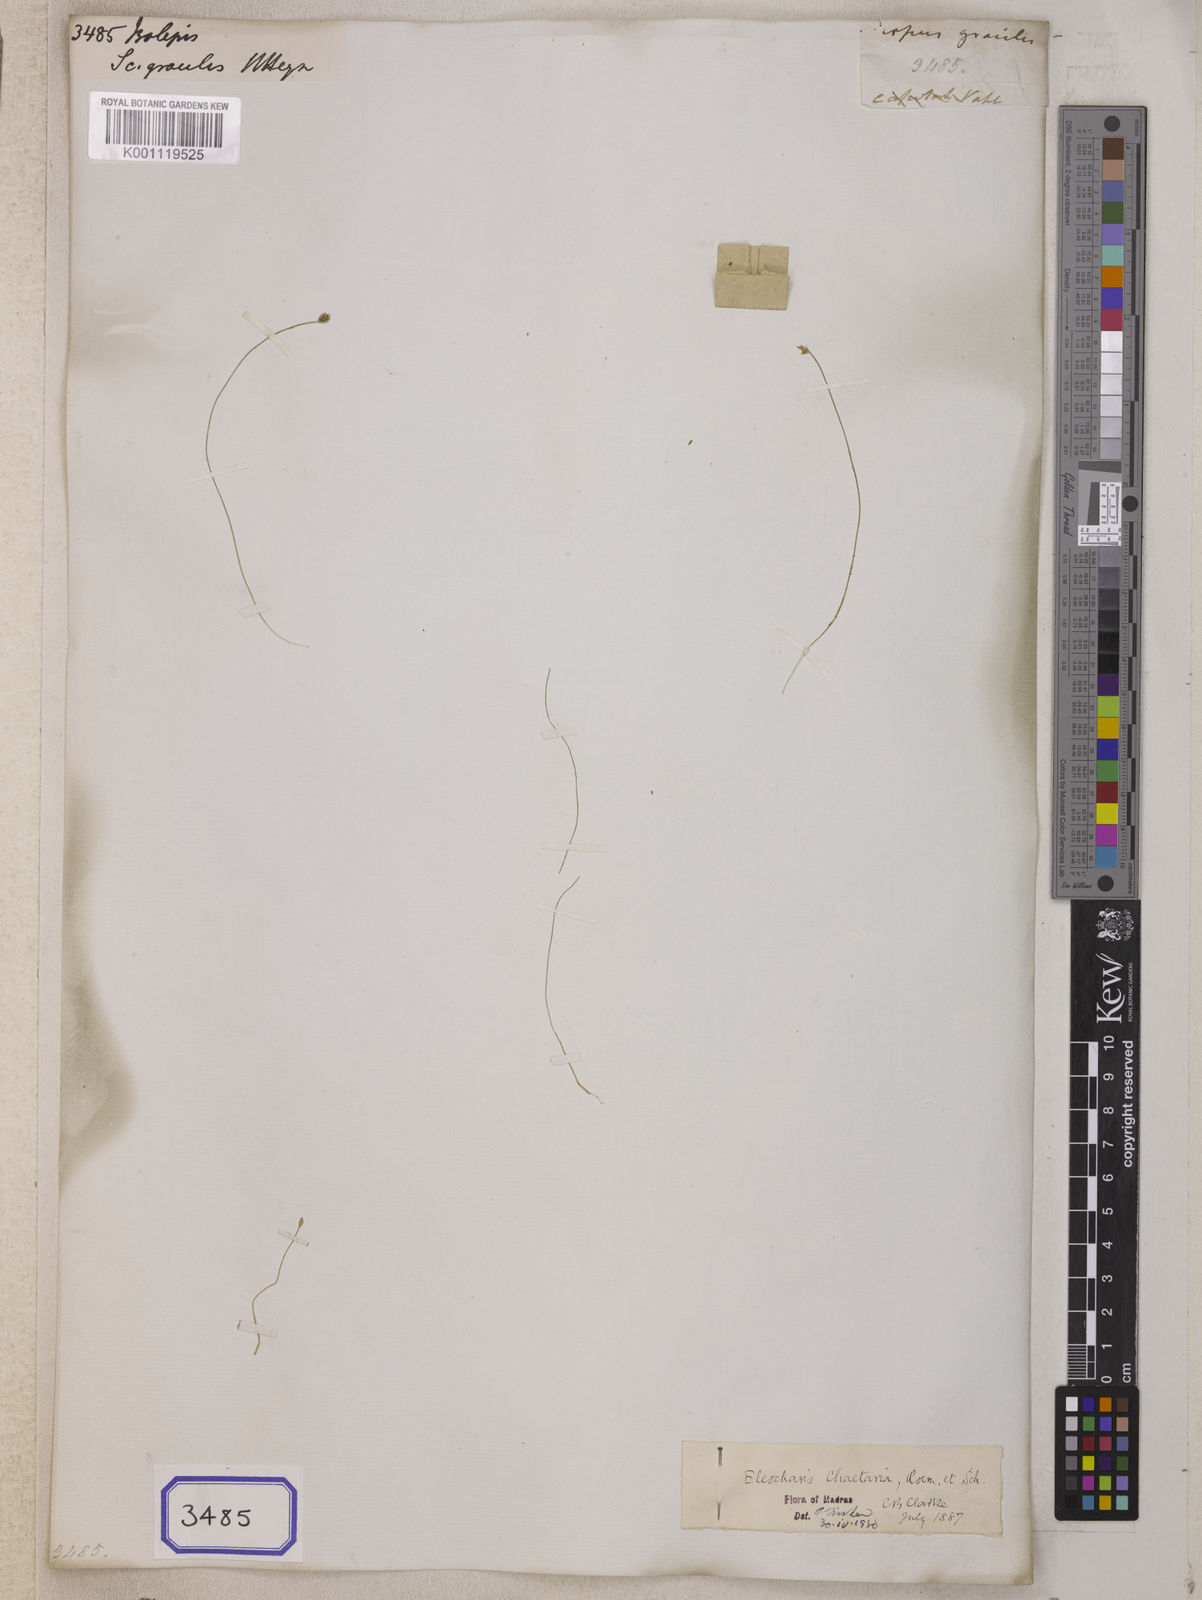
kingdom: Plantae
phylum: Tracheophyta
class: Liliopsida
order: Poales
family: Cyperaceae
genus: Isolepis
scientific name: Isolepis
